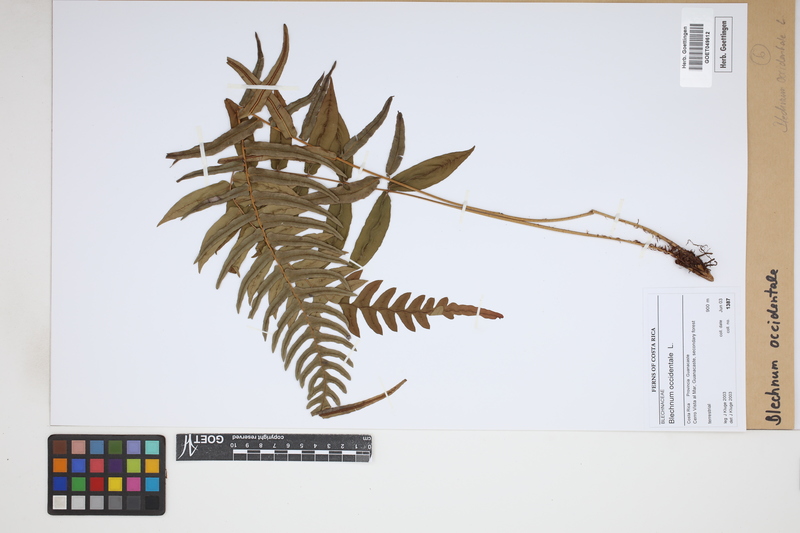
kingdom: Plantae
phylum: Tracheophyta
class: Polypodiopsida
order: Polypodiales
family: Blechnaceae
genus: Blechnum
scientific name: Blechnum occidentale
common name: Hammock fern
